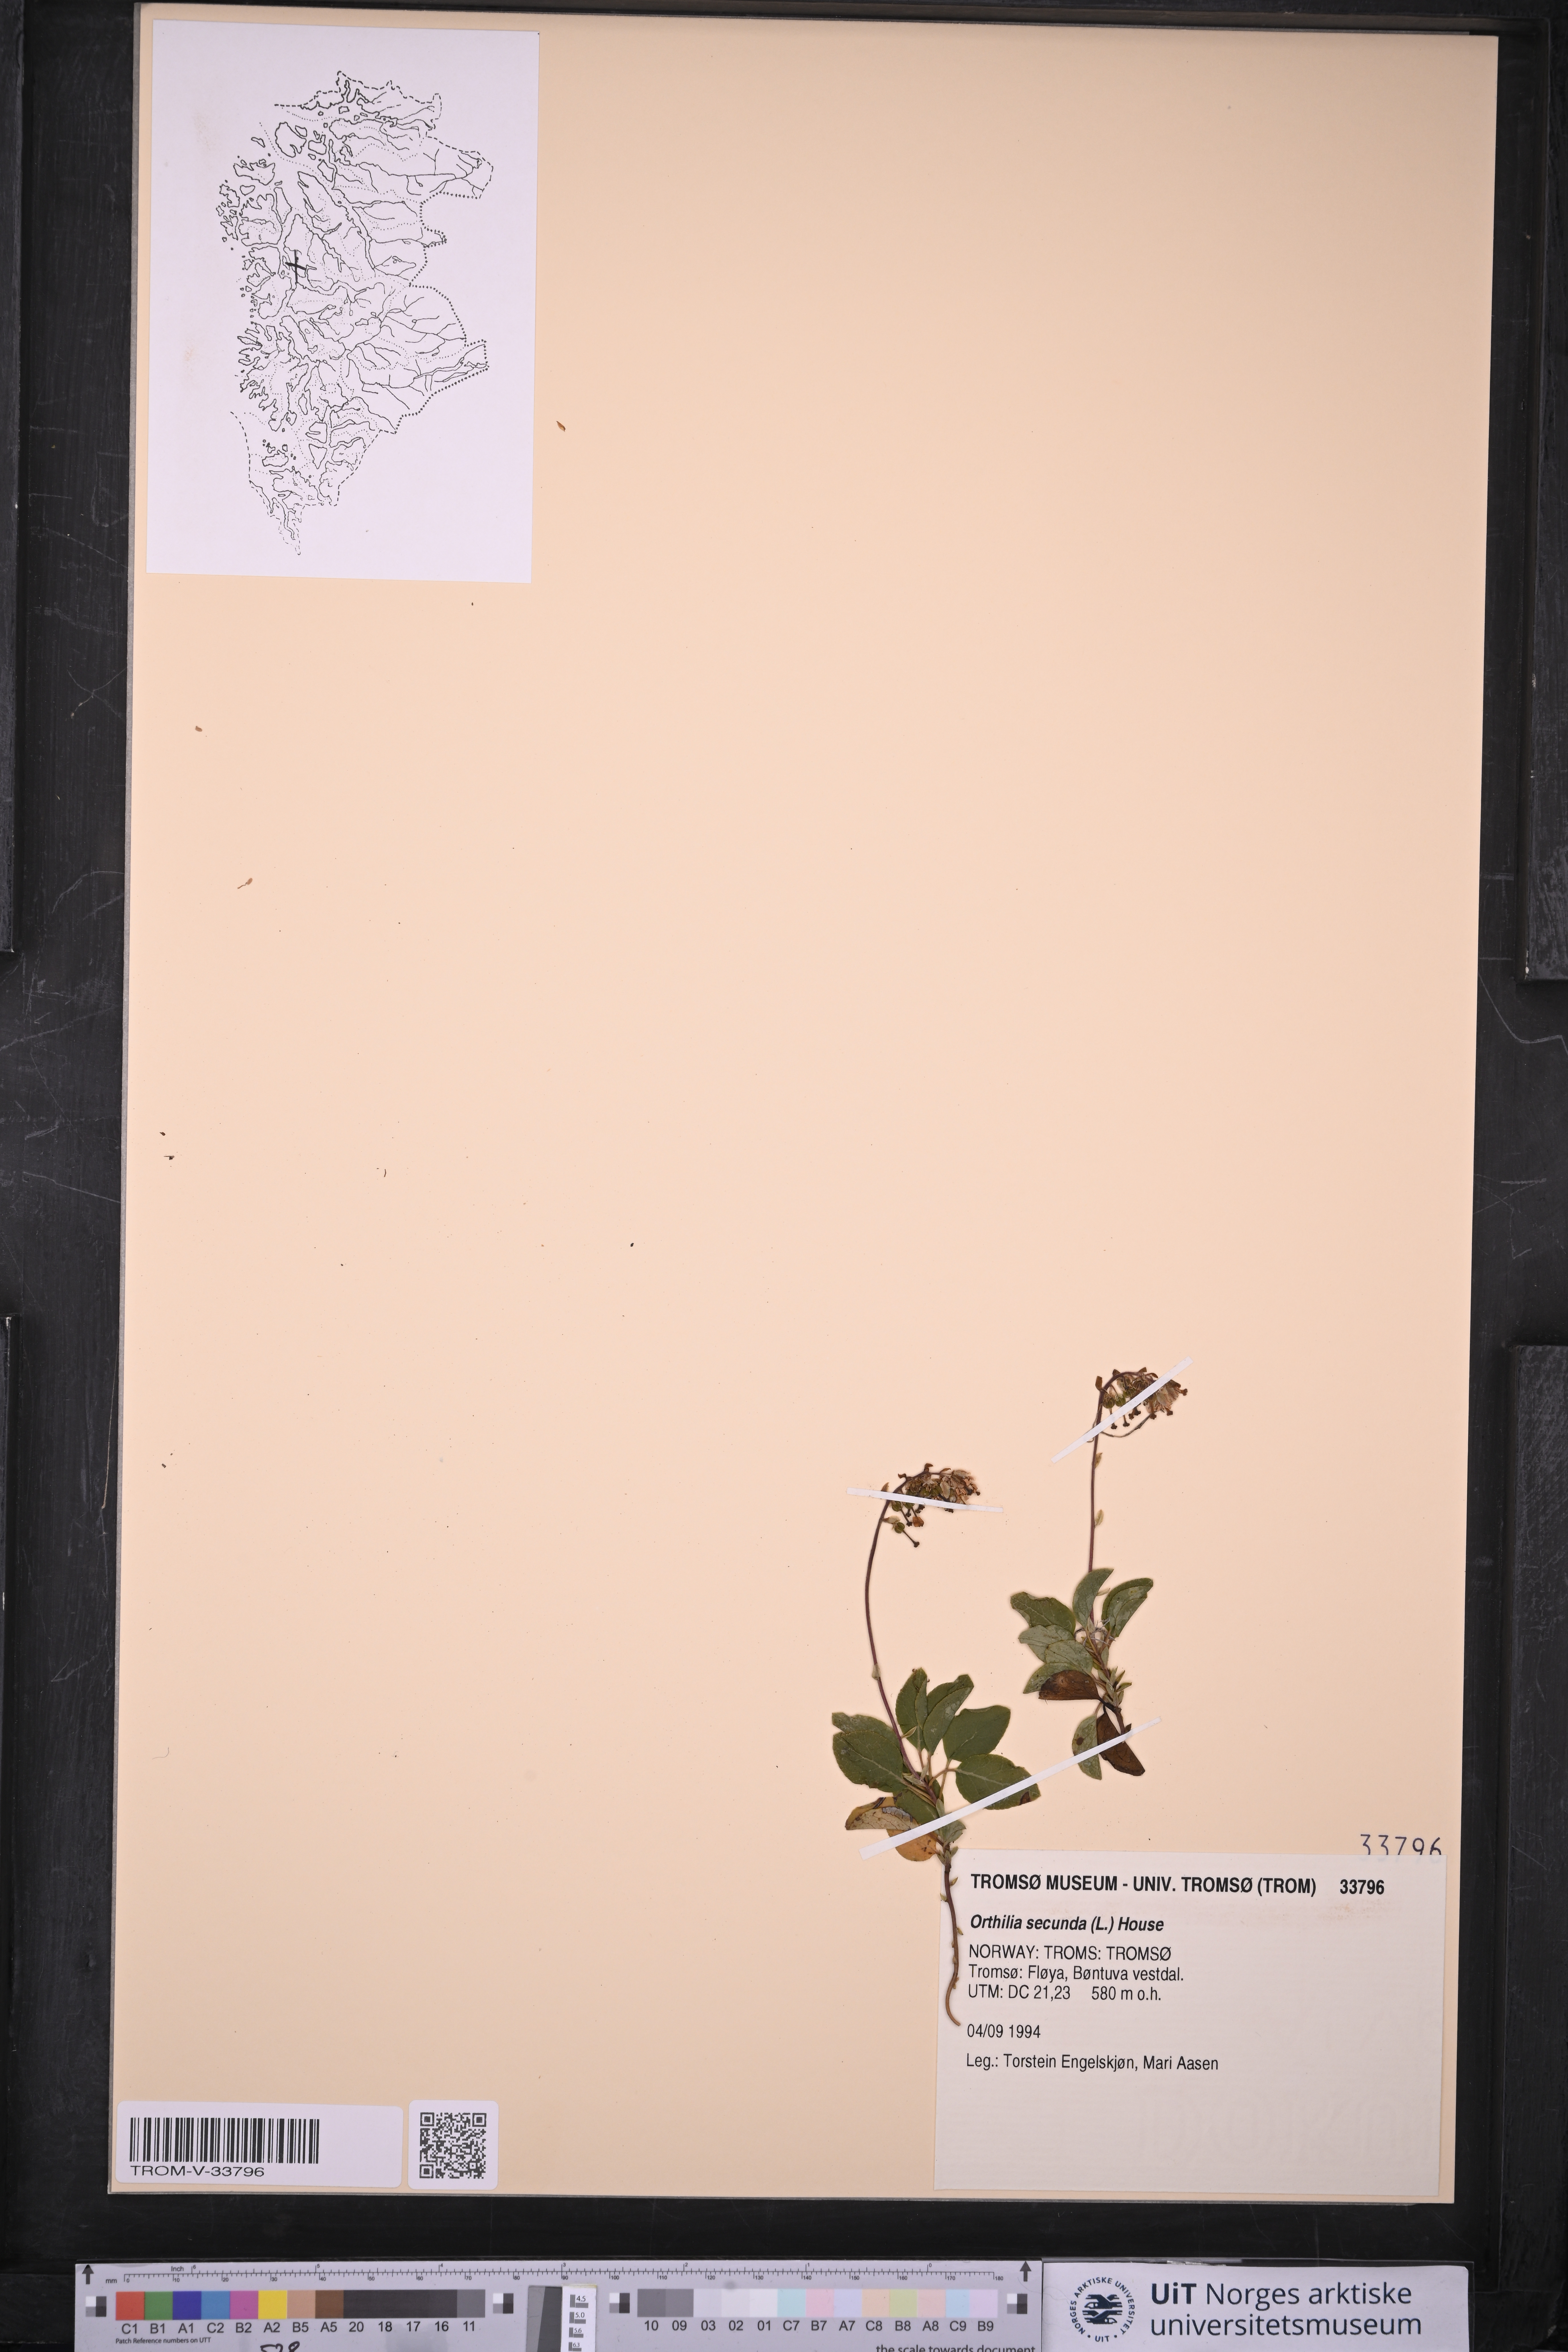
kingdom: Plantae
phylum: Tracheophyta
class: Magnoliopsida
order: Ericales
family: Ericaceae
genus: Orthilia
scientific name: Orthilia secunda
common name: One-sided orthilia
